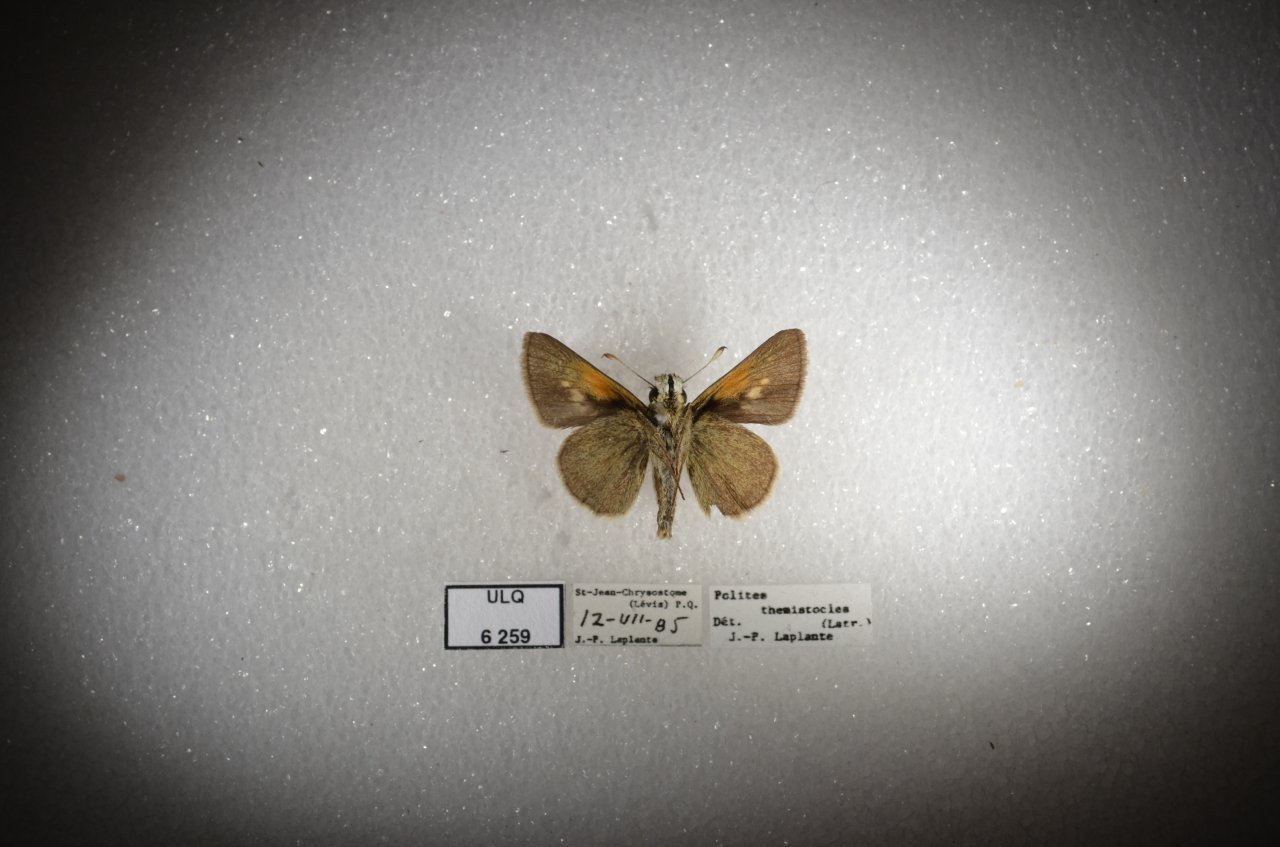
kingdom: Animalia
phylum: Arthropoda
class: Insecta
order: Lepidoptera
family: Hesperiidae
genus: Polites
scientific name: Polites themistocles
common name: Tawny-edged Skipper
